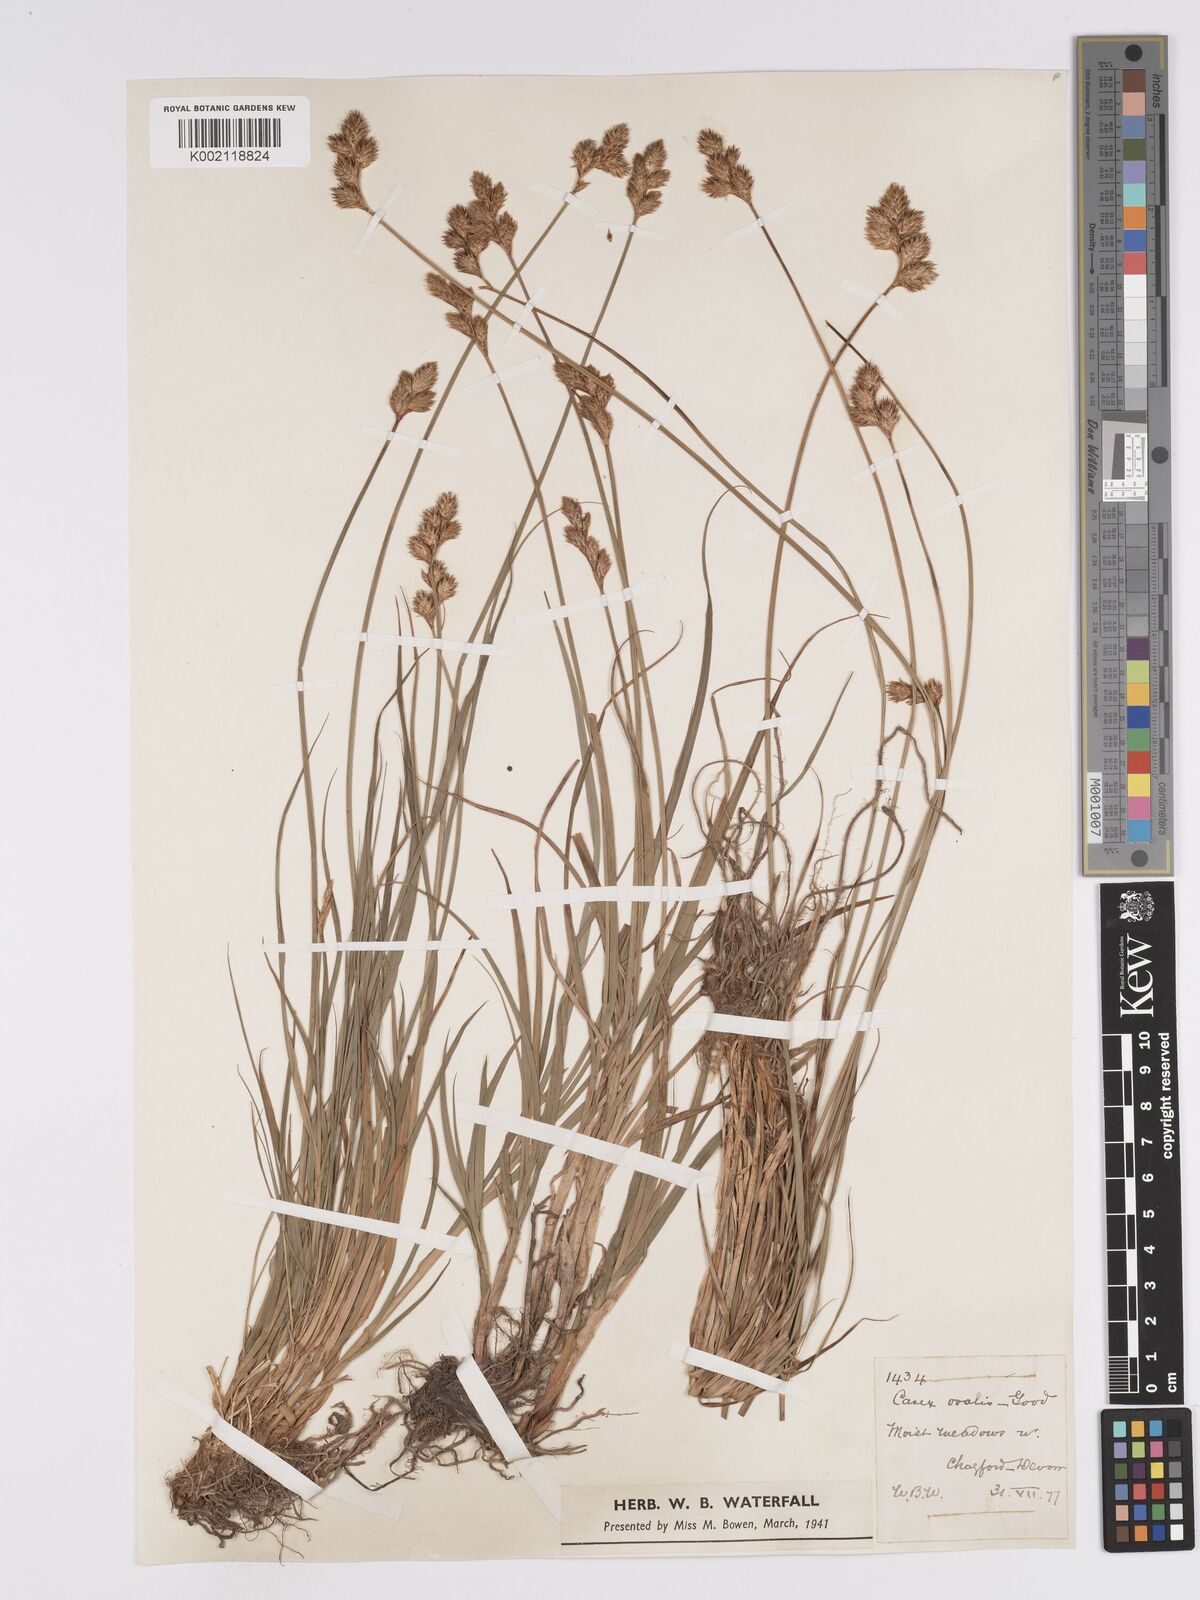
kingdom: Plantae
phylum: Tracheophyta
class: Liliopsida
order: Poales
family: Cyperaceae
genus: Carex
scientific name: Carex leporina
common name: Oval sedge
